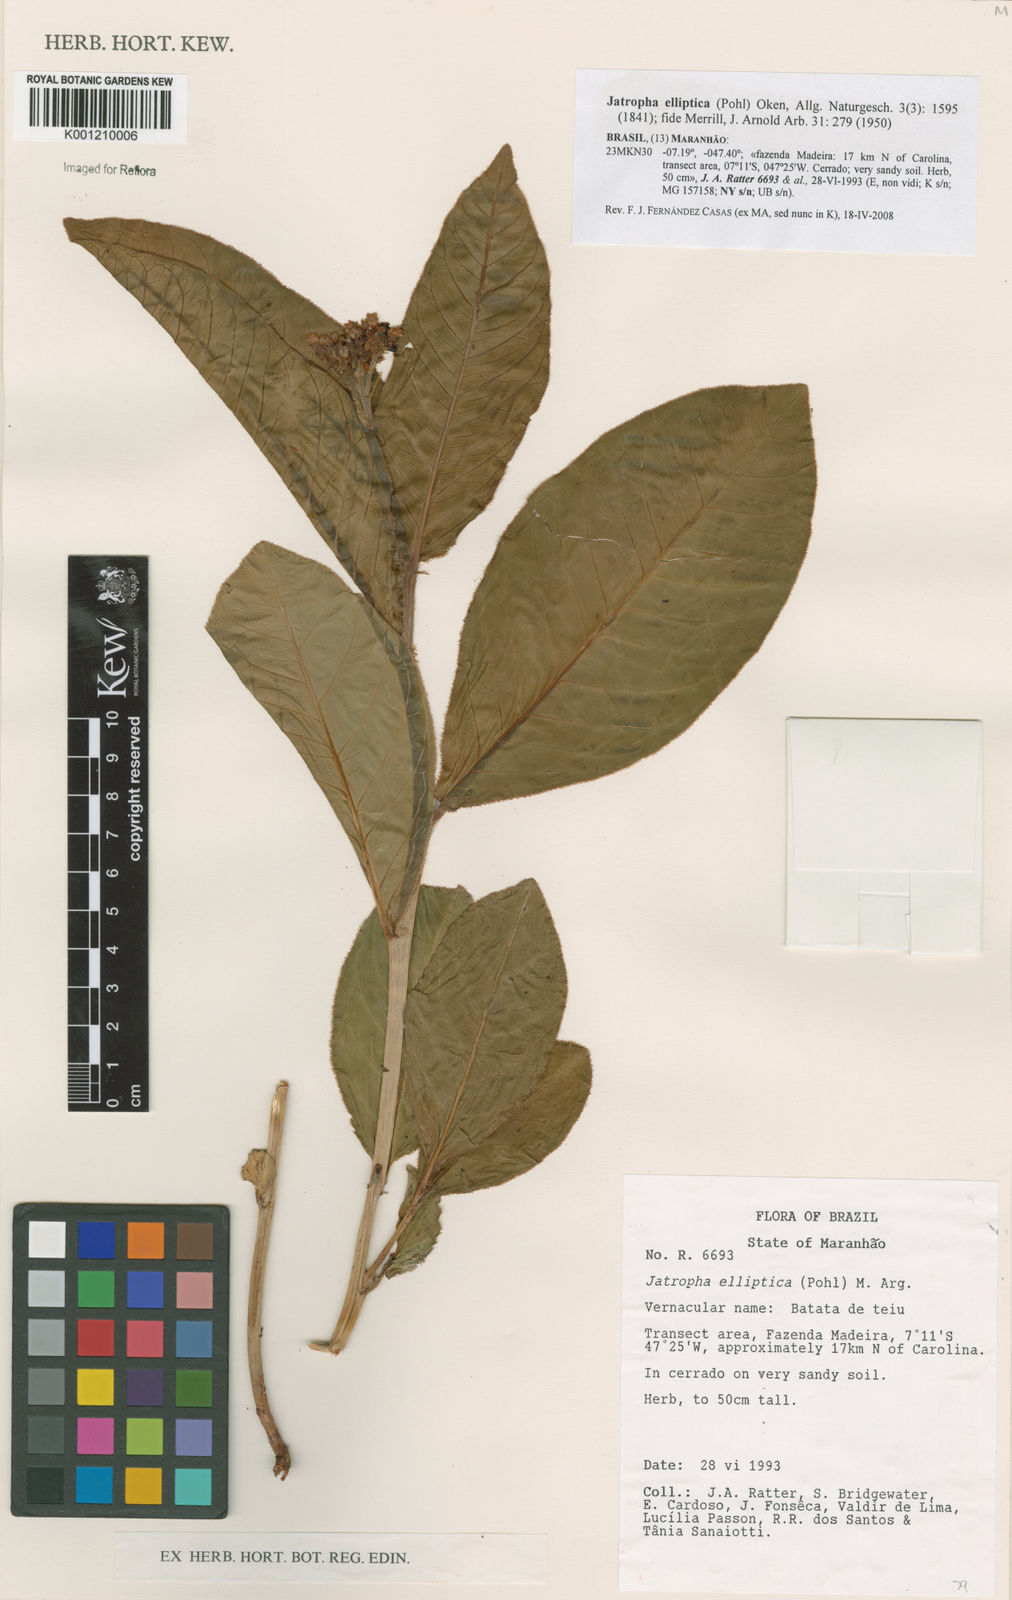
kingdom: Plantae
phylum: Tracheophyta
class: Magnoliopsida
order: Malpighiales
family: Euphorbiaceae
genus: Jatropha
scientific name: Jatropha elliptica
